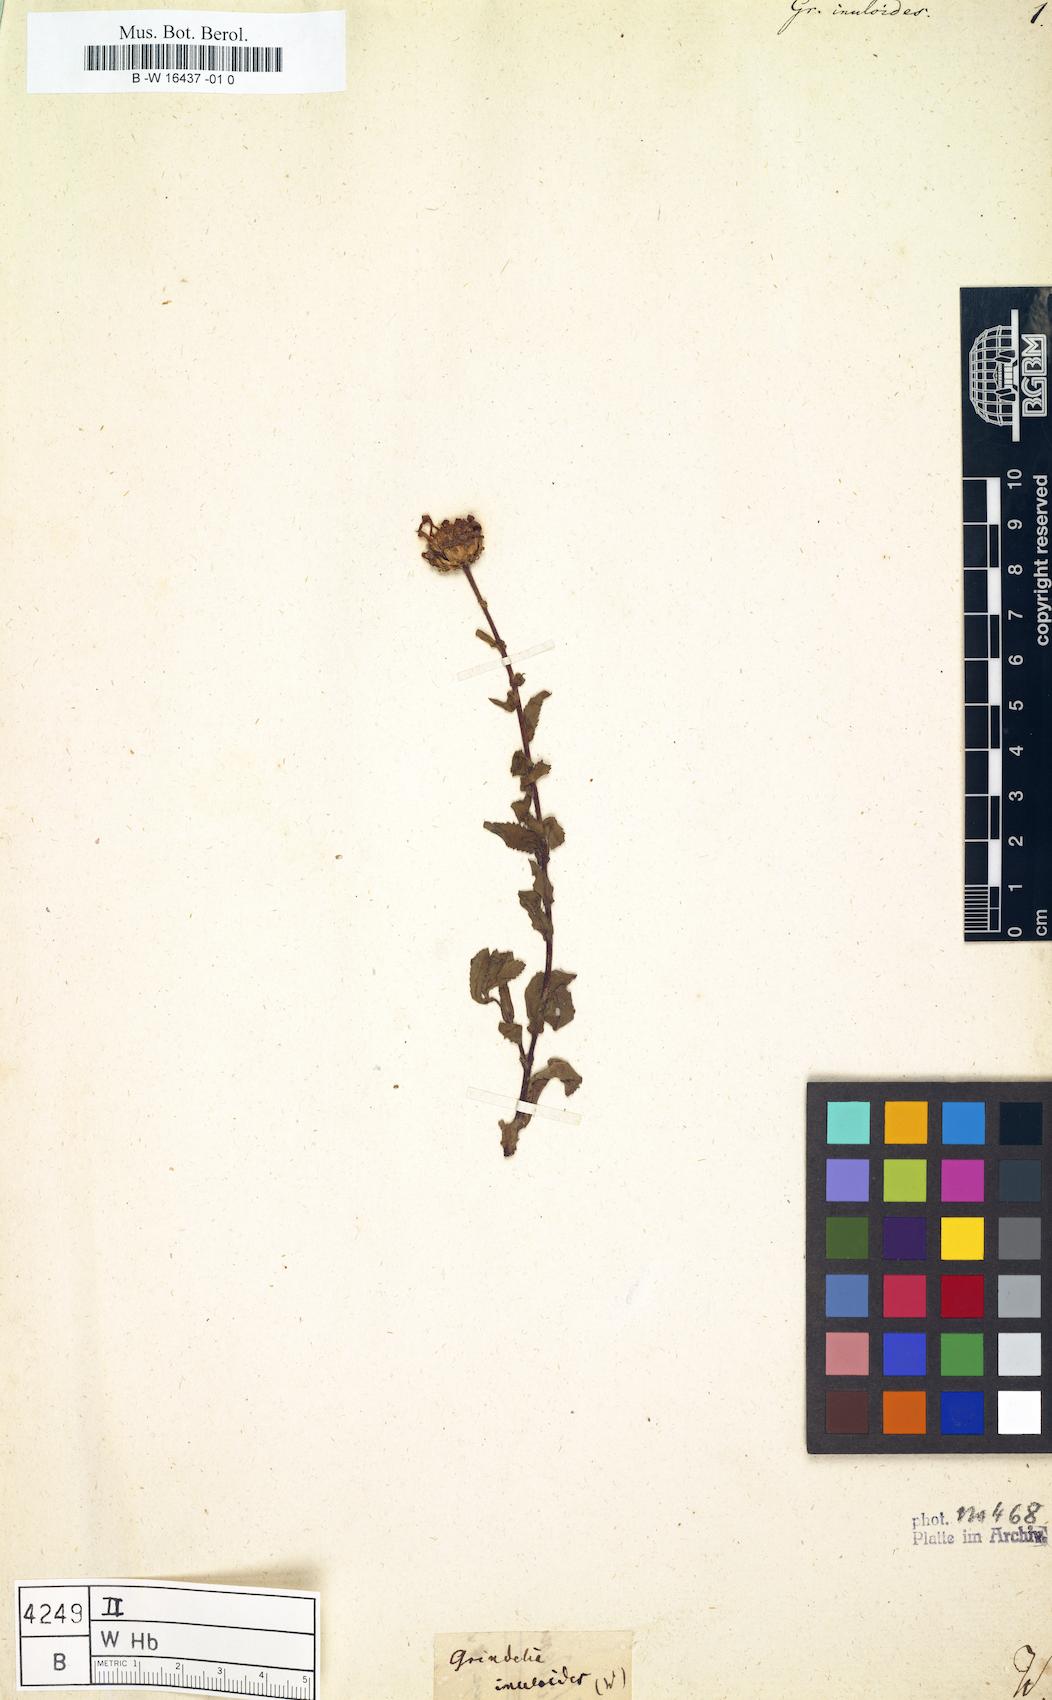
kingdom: Plantae
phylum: Tracheophyta
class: Magnoliopsida
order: Asterales
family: Asteraceae
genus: Grindelia
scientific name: Grindelia inuloides
